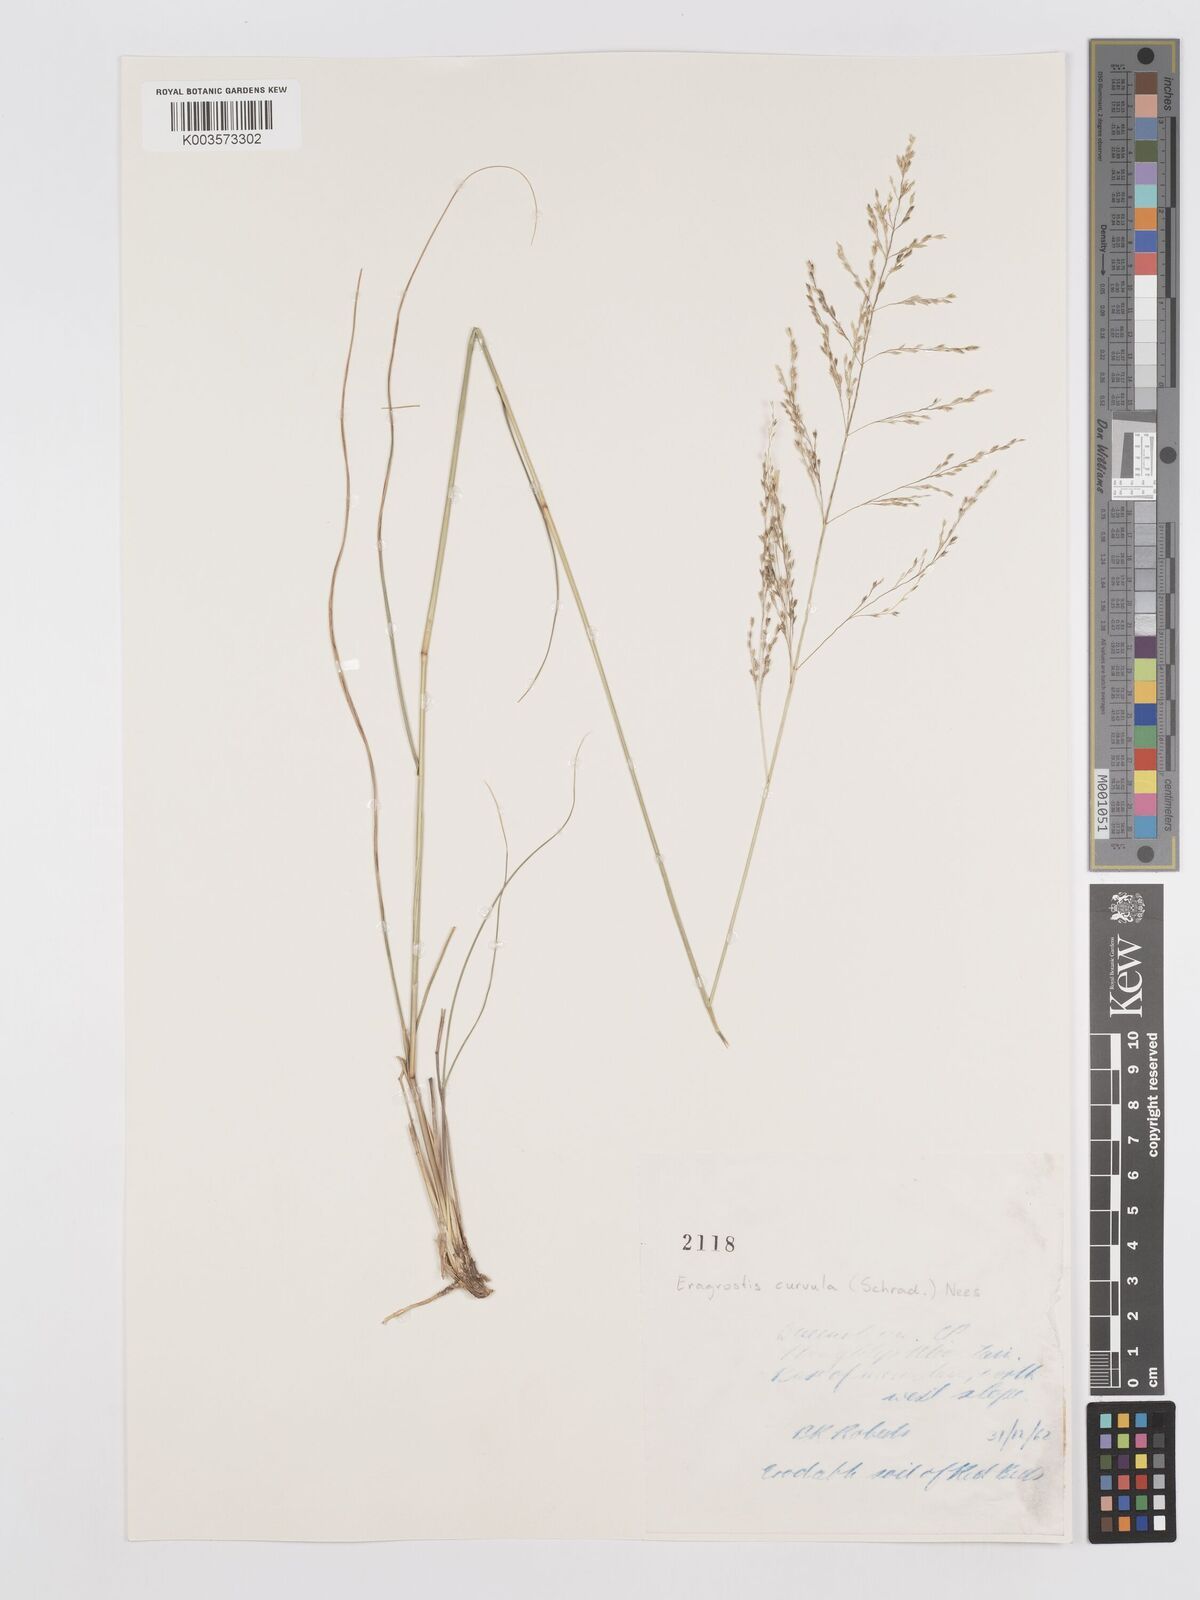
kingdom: Plantae
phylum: Tracheophyta
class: Liliopsida
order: Poales
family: Poaceae
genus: Eragrostis
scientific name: Eragrostis curvula
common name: African love-grass
